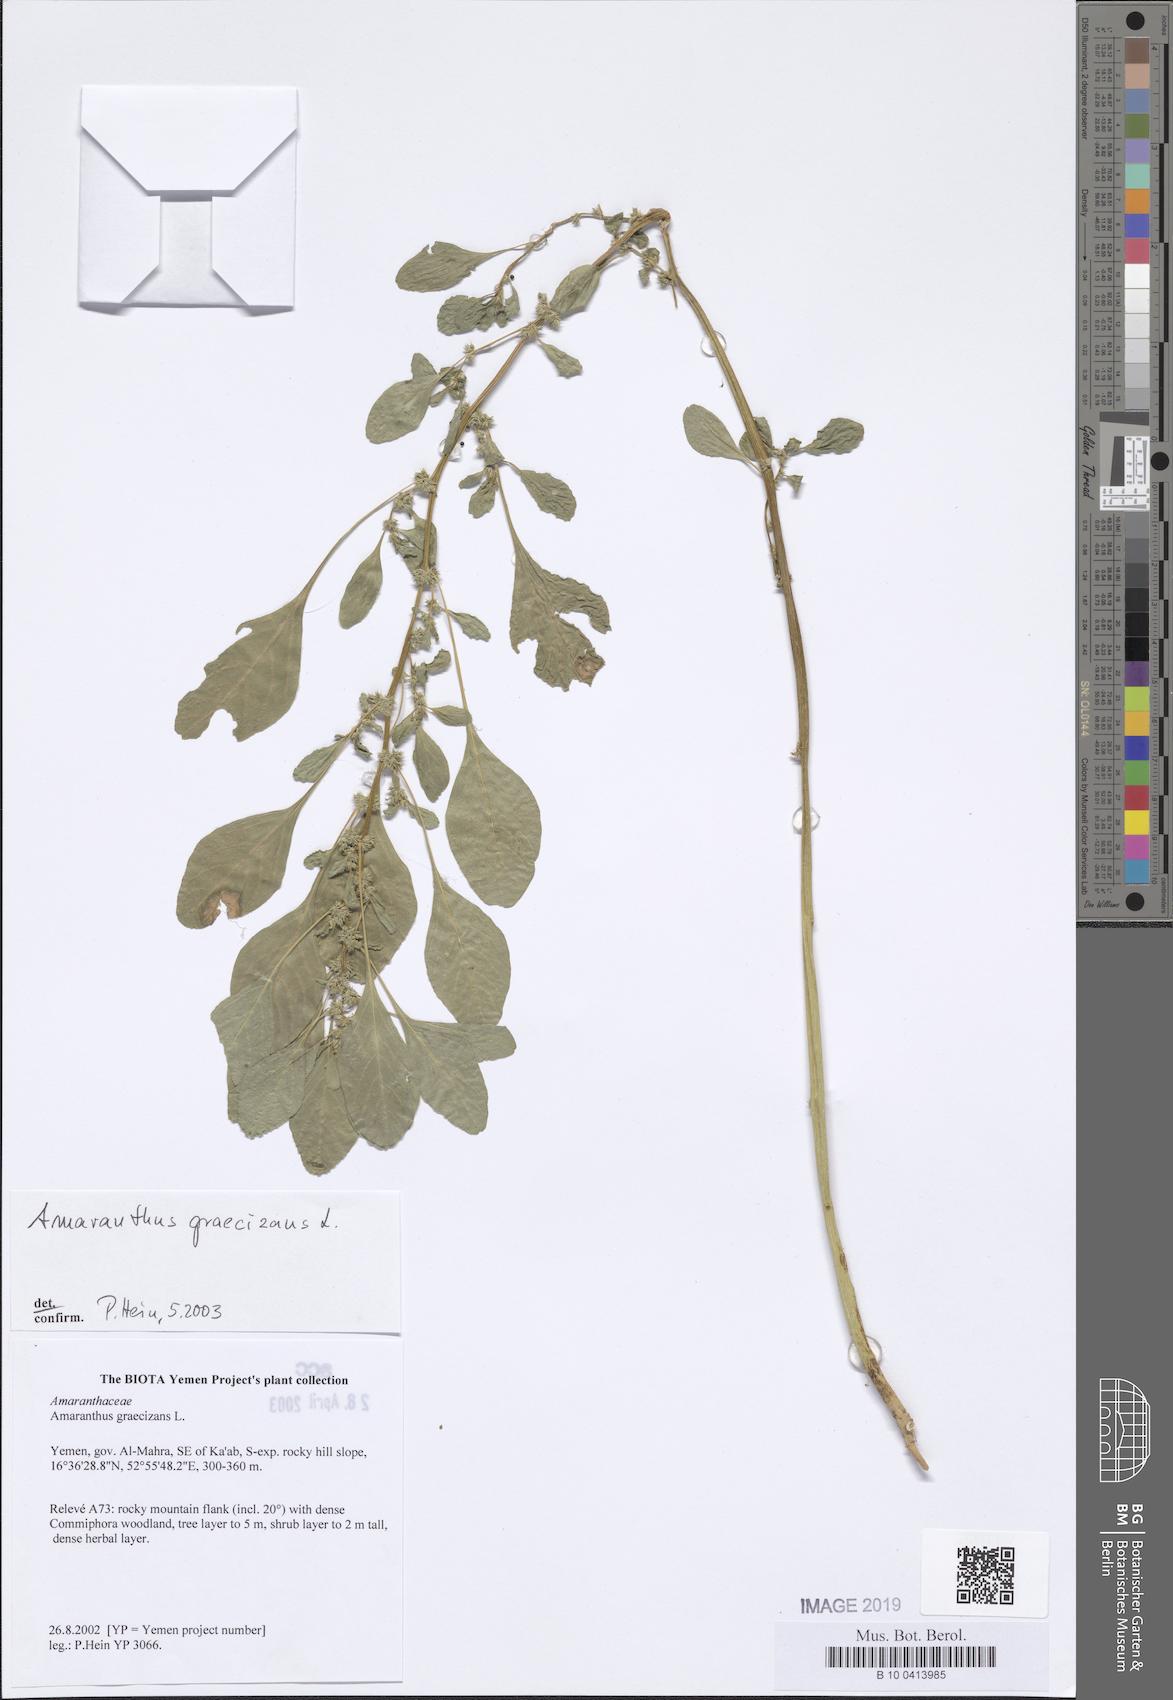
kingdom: Plantae
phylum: Tracheophyta
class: Magnoliopsida
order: Caryophyllales
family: Amaranthaceae
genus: Amaranthus
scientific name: Amaranthus graecizans
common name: Mediterranean amaranth
